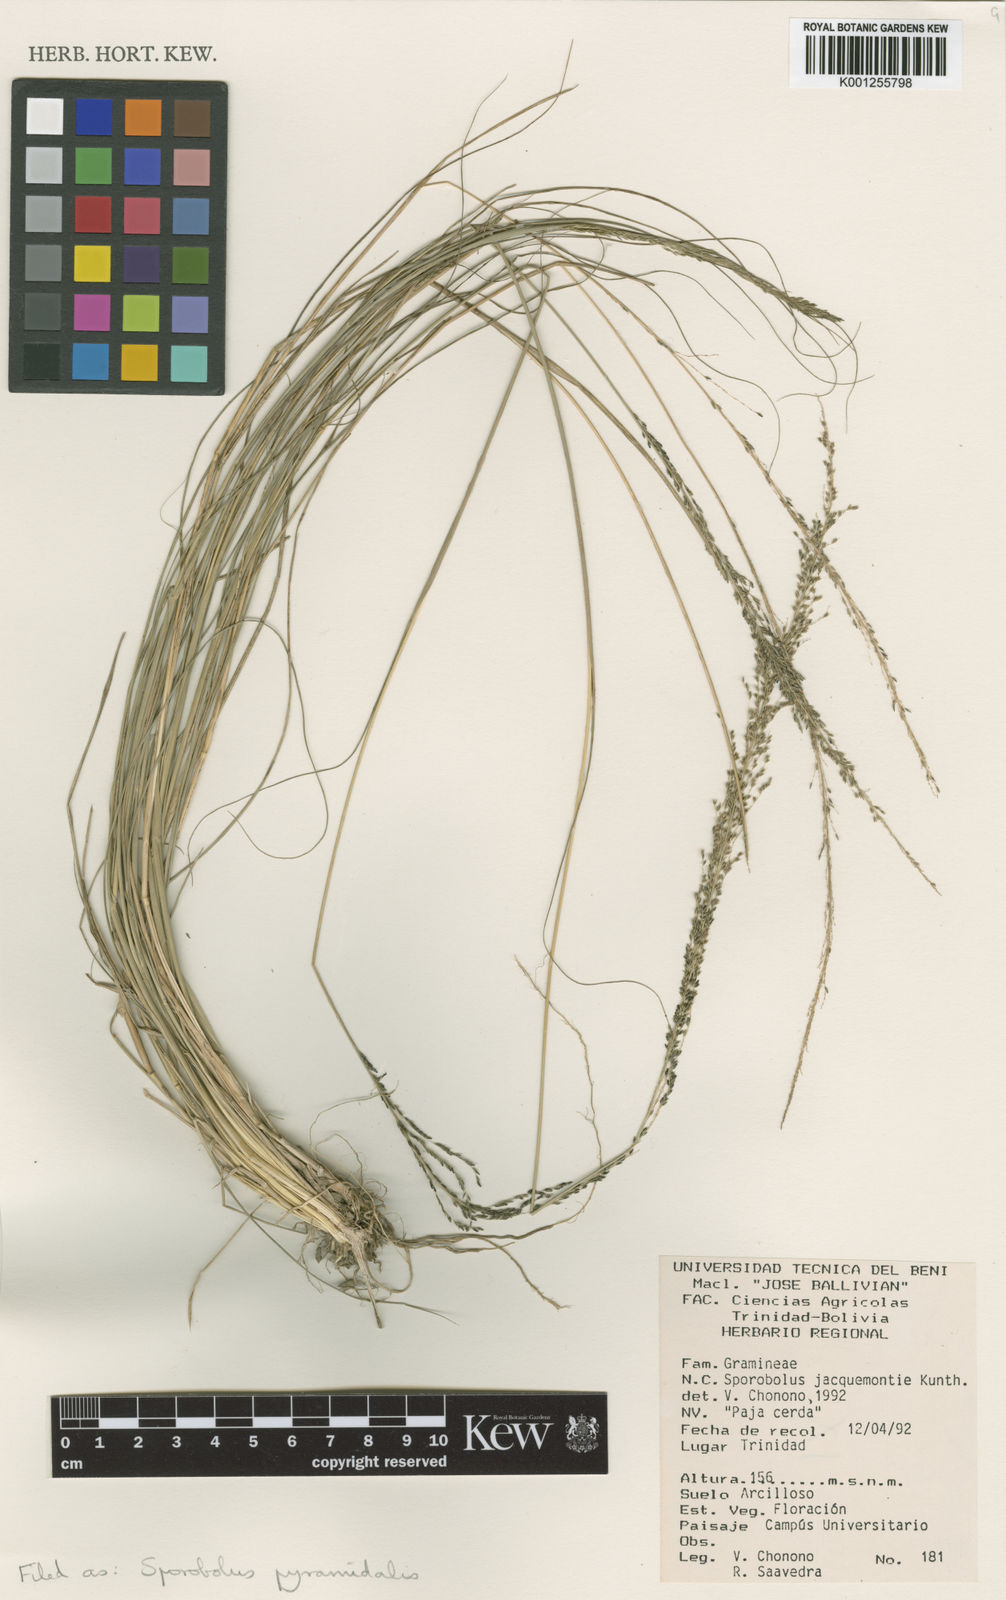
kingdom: Plantae
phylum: Tracheophyta
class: Liliopsida
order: Poales
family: Poaceae
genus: Sporobolus
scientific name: Sporobolus pyramidalis
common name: West indian dropseed
